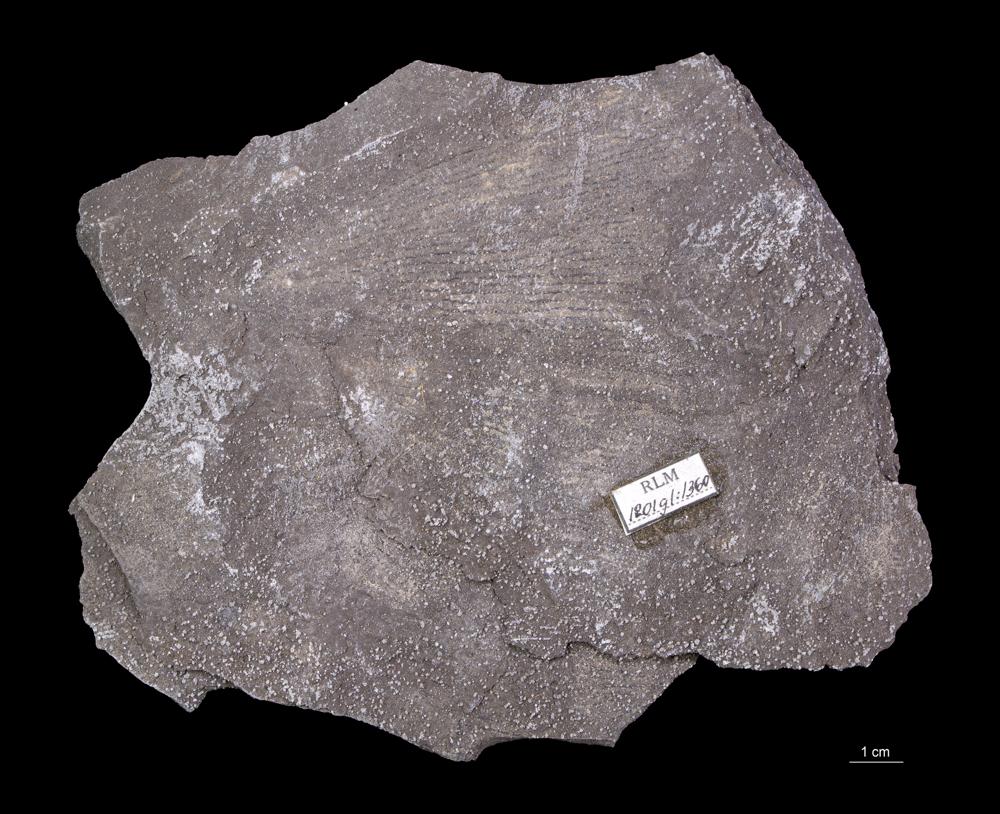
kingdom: Animalia
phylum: Hemichordata
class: Pterobranchia
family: Anisograptidae
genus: Rhabdinopora
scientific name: Rhabdinopora Gorgonia flabelliformis
